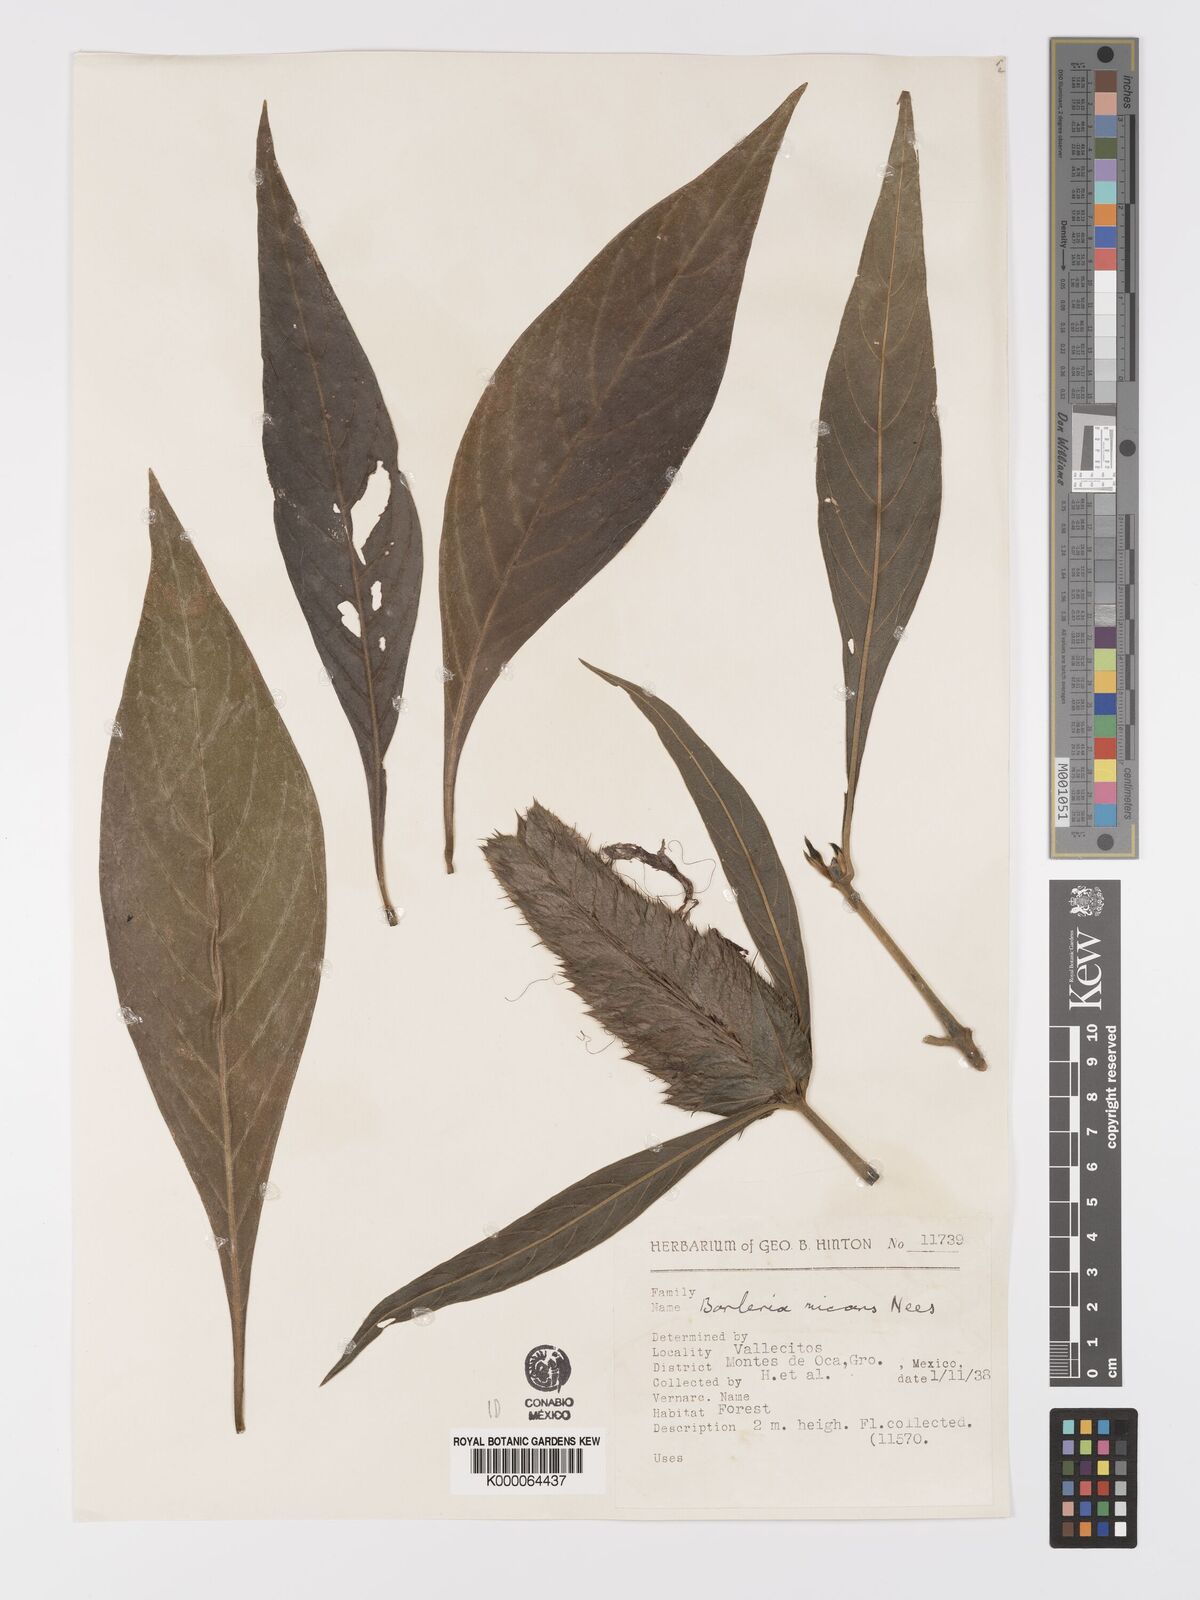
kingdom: Plantae
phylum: Tracheophyta
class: Magnoliopsida
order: Lamiales
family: Acanthaceae
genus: Barleria
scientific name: Barleria oenotheroides
